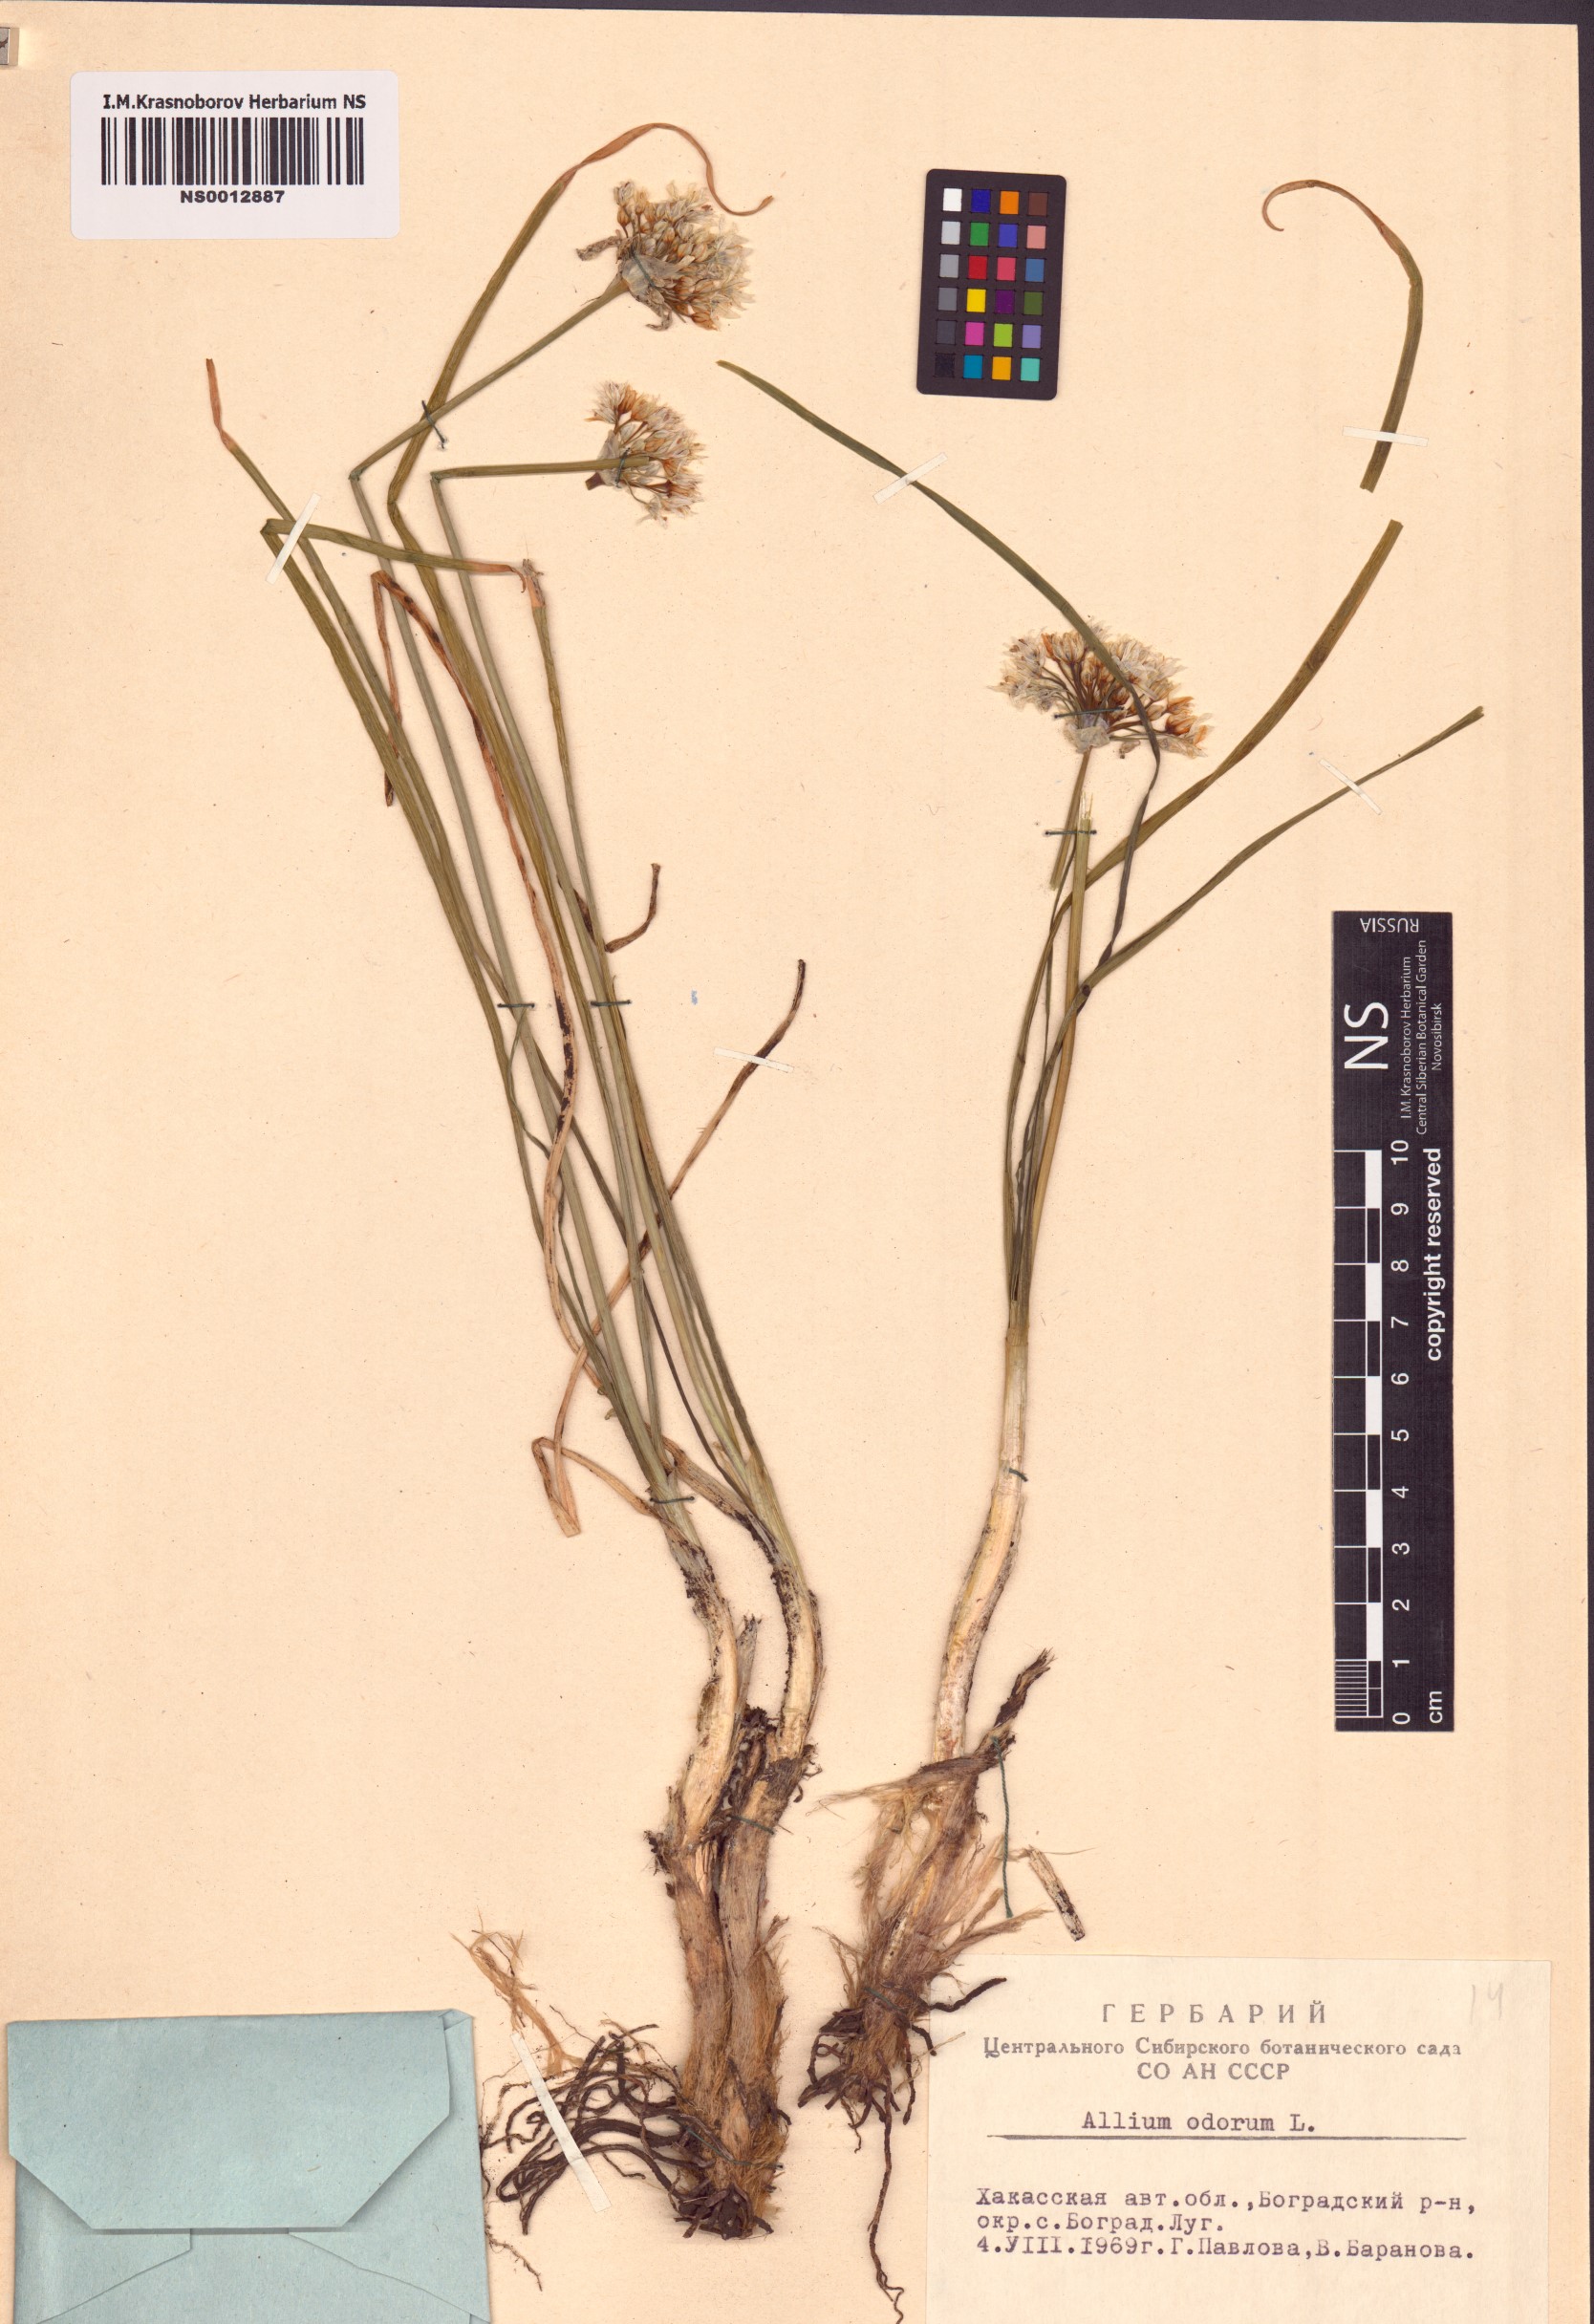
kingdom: Plantae
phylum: Tracheophyta
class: Liliopsida
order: Asparagales
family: Amaryllidaceae
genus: Allium
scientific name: Allium ramosum
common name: Fragrant garlic
